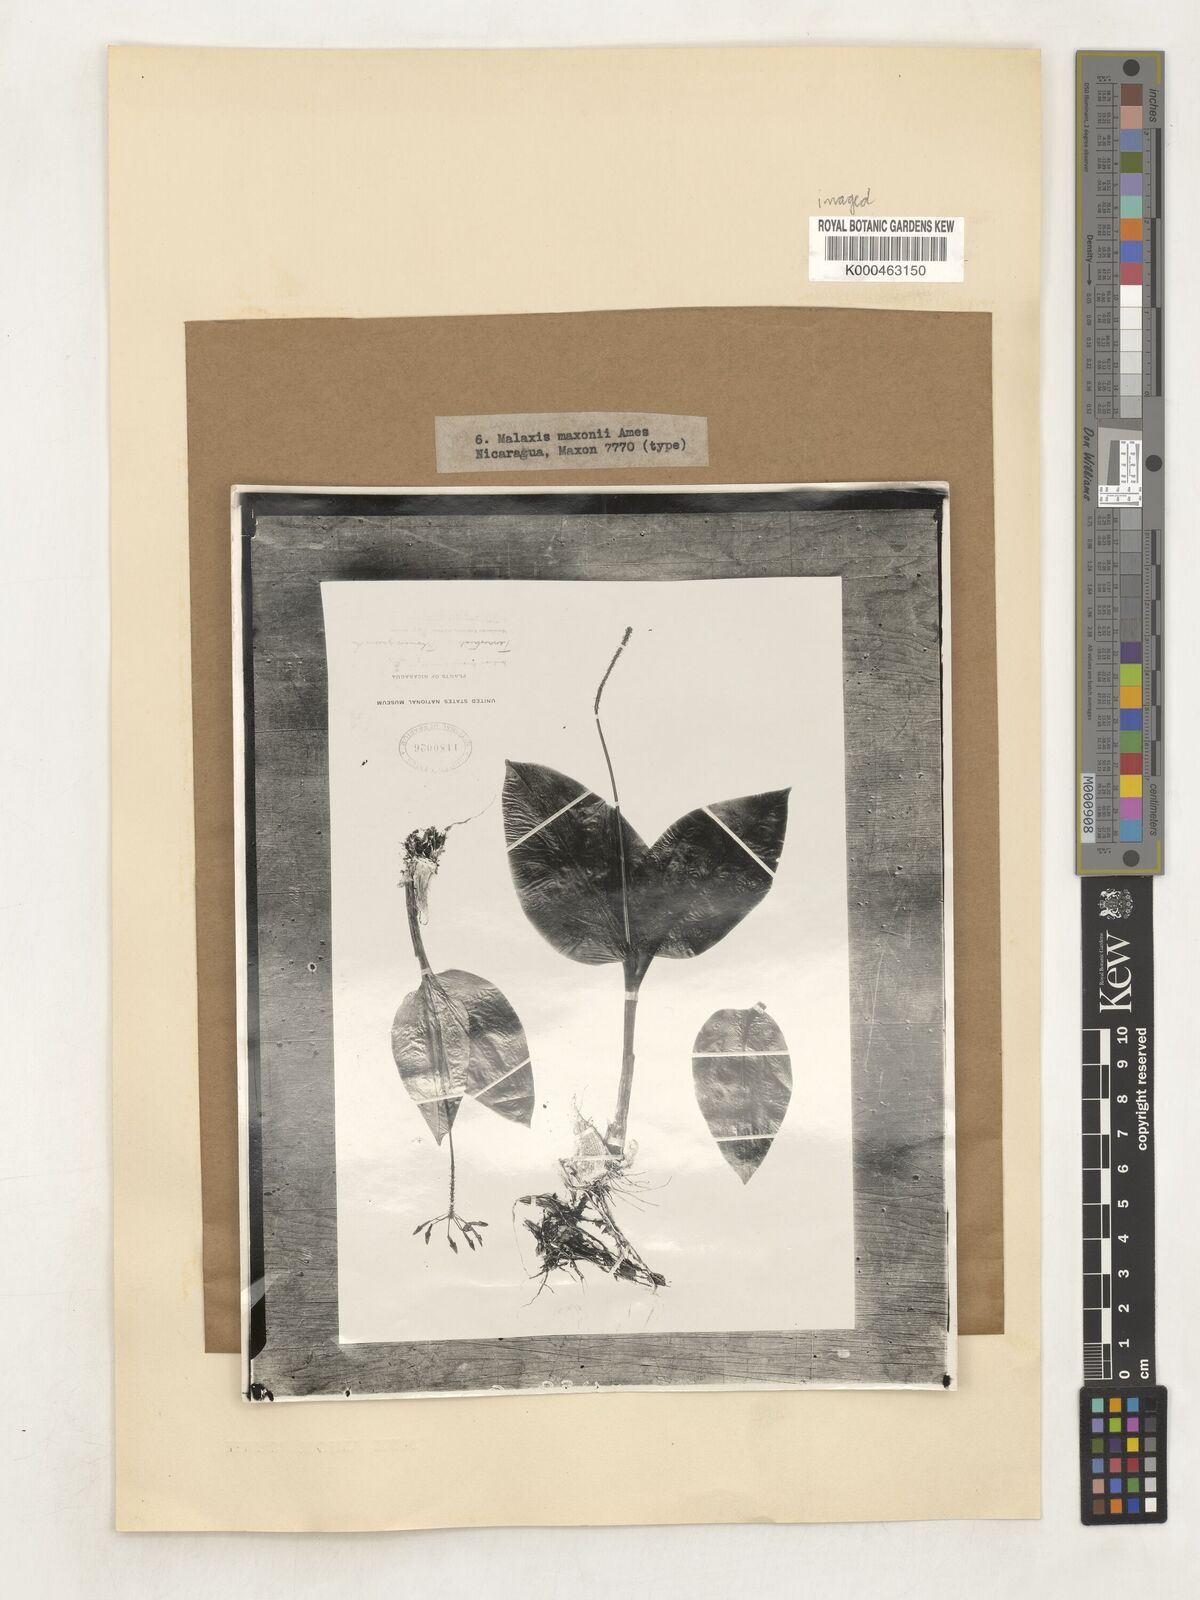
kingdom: Plantae
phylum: Tracheophyta
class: Liliopsida
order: Asparagales
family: Orchidaceae
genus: Malaxis
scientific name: Malaxis maxonii
